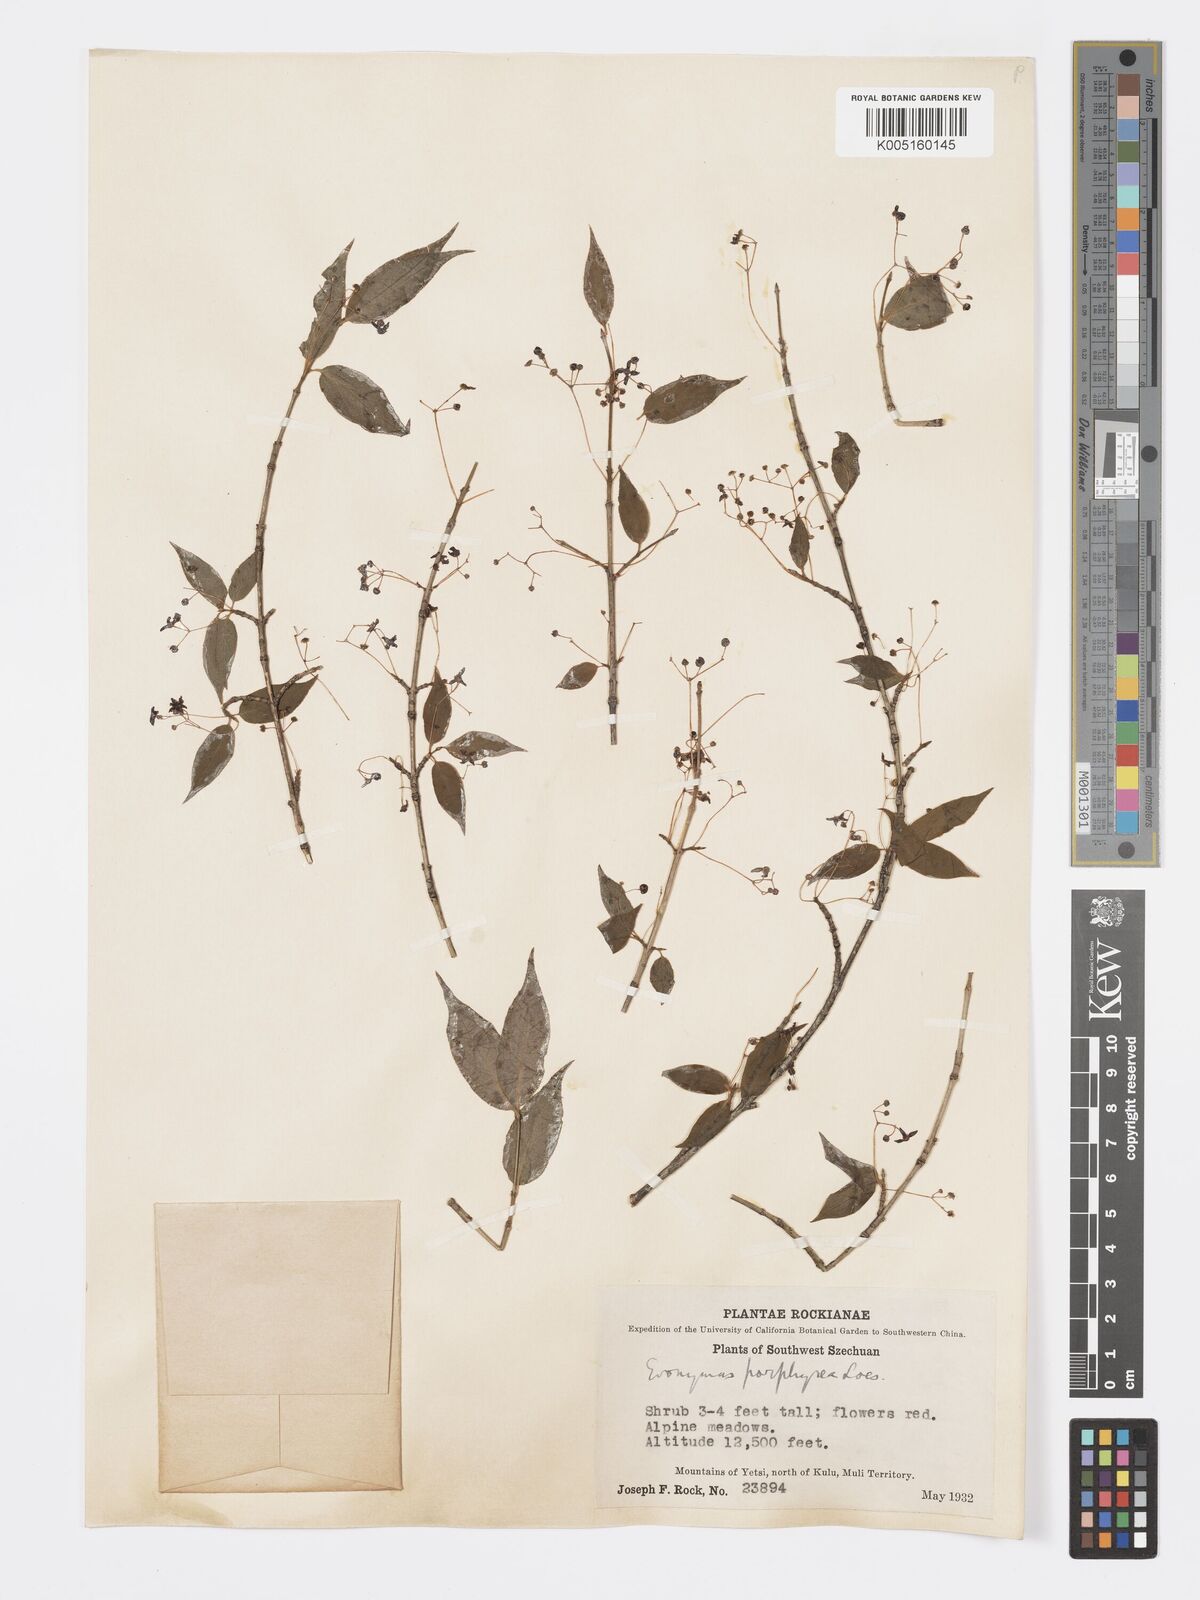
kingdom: Plantae
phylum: Tracheophyta
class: Magnoliopsida
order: Celastrales
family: Celastraceae
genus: Euonymus
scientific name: Euonymus frigidus
